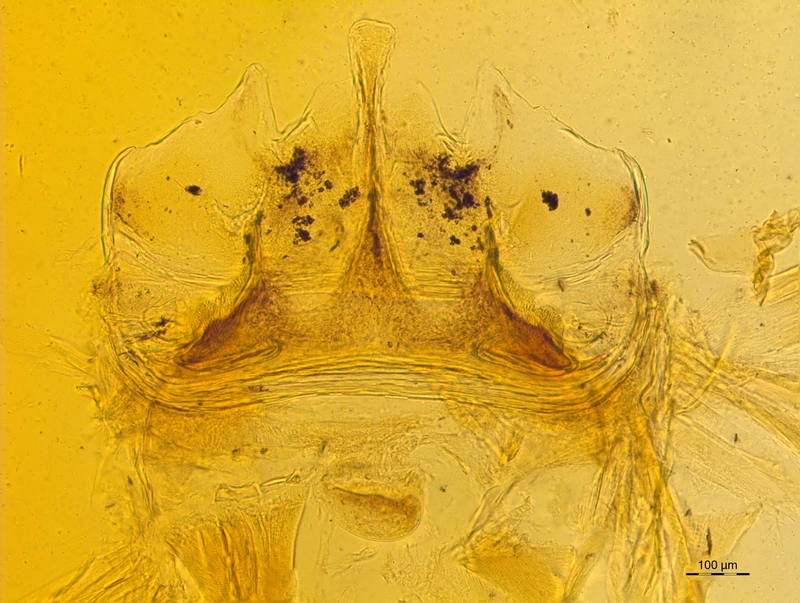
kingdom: Animalia
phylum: Arthropoda
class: Diplopoda
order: Chordeumatida
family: Craspedosomatidae
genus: Craspedosoma
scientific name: Craspedosoma taurinorum
